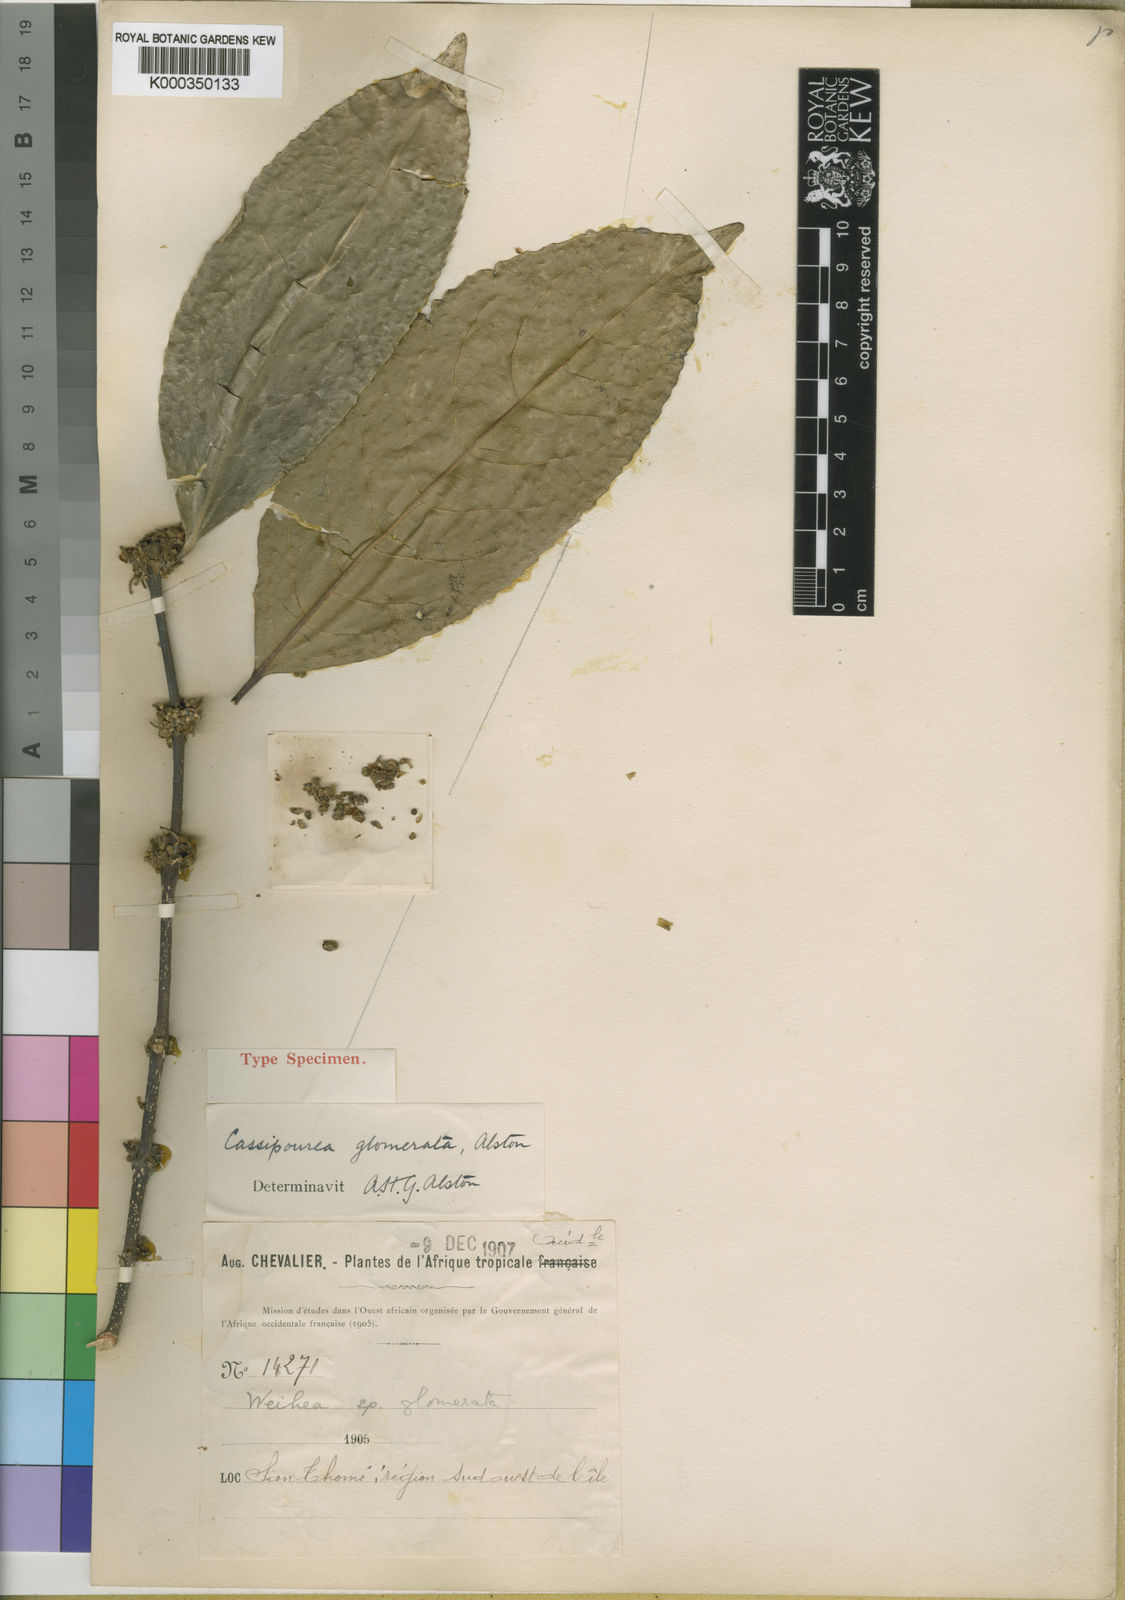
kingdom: Plantae
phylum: Tracheophyta
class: Magnoliopsida
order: Malpighiales
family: Rhizophoraceae
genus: Cassipourea
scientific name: Cassipourea glomerata
